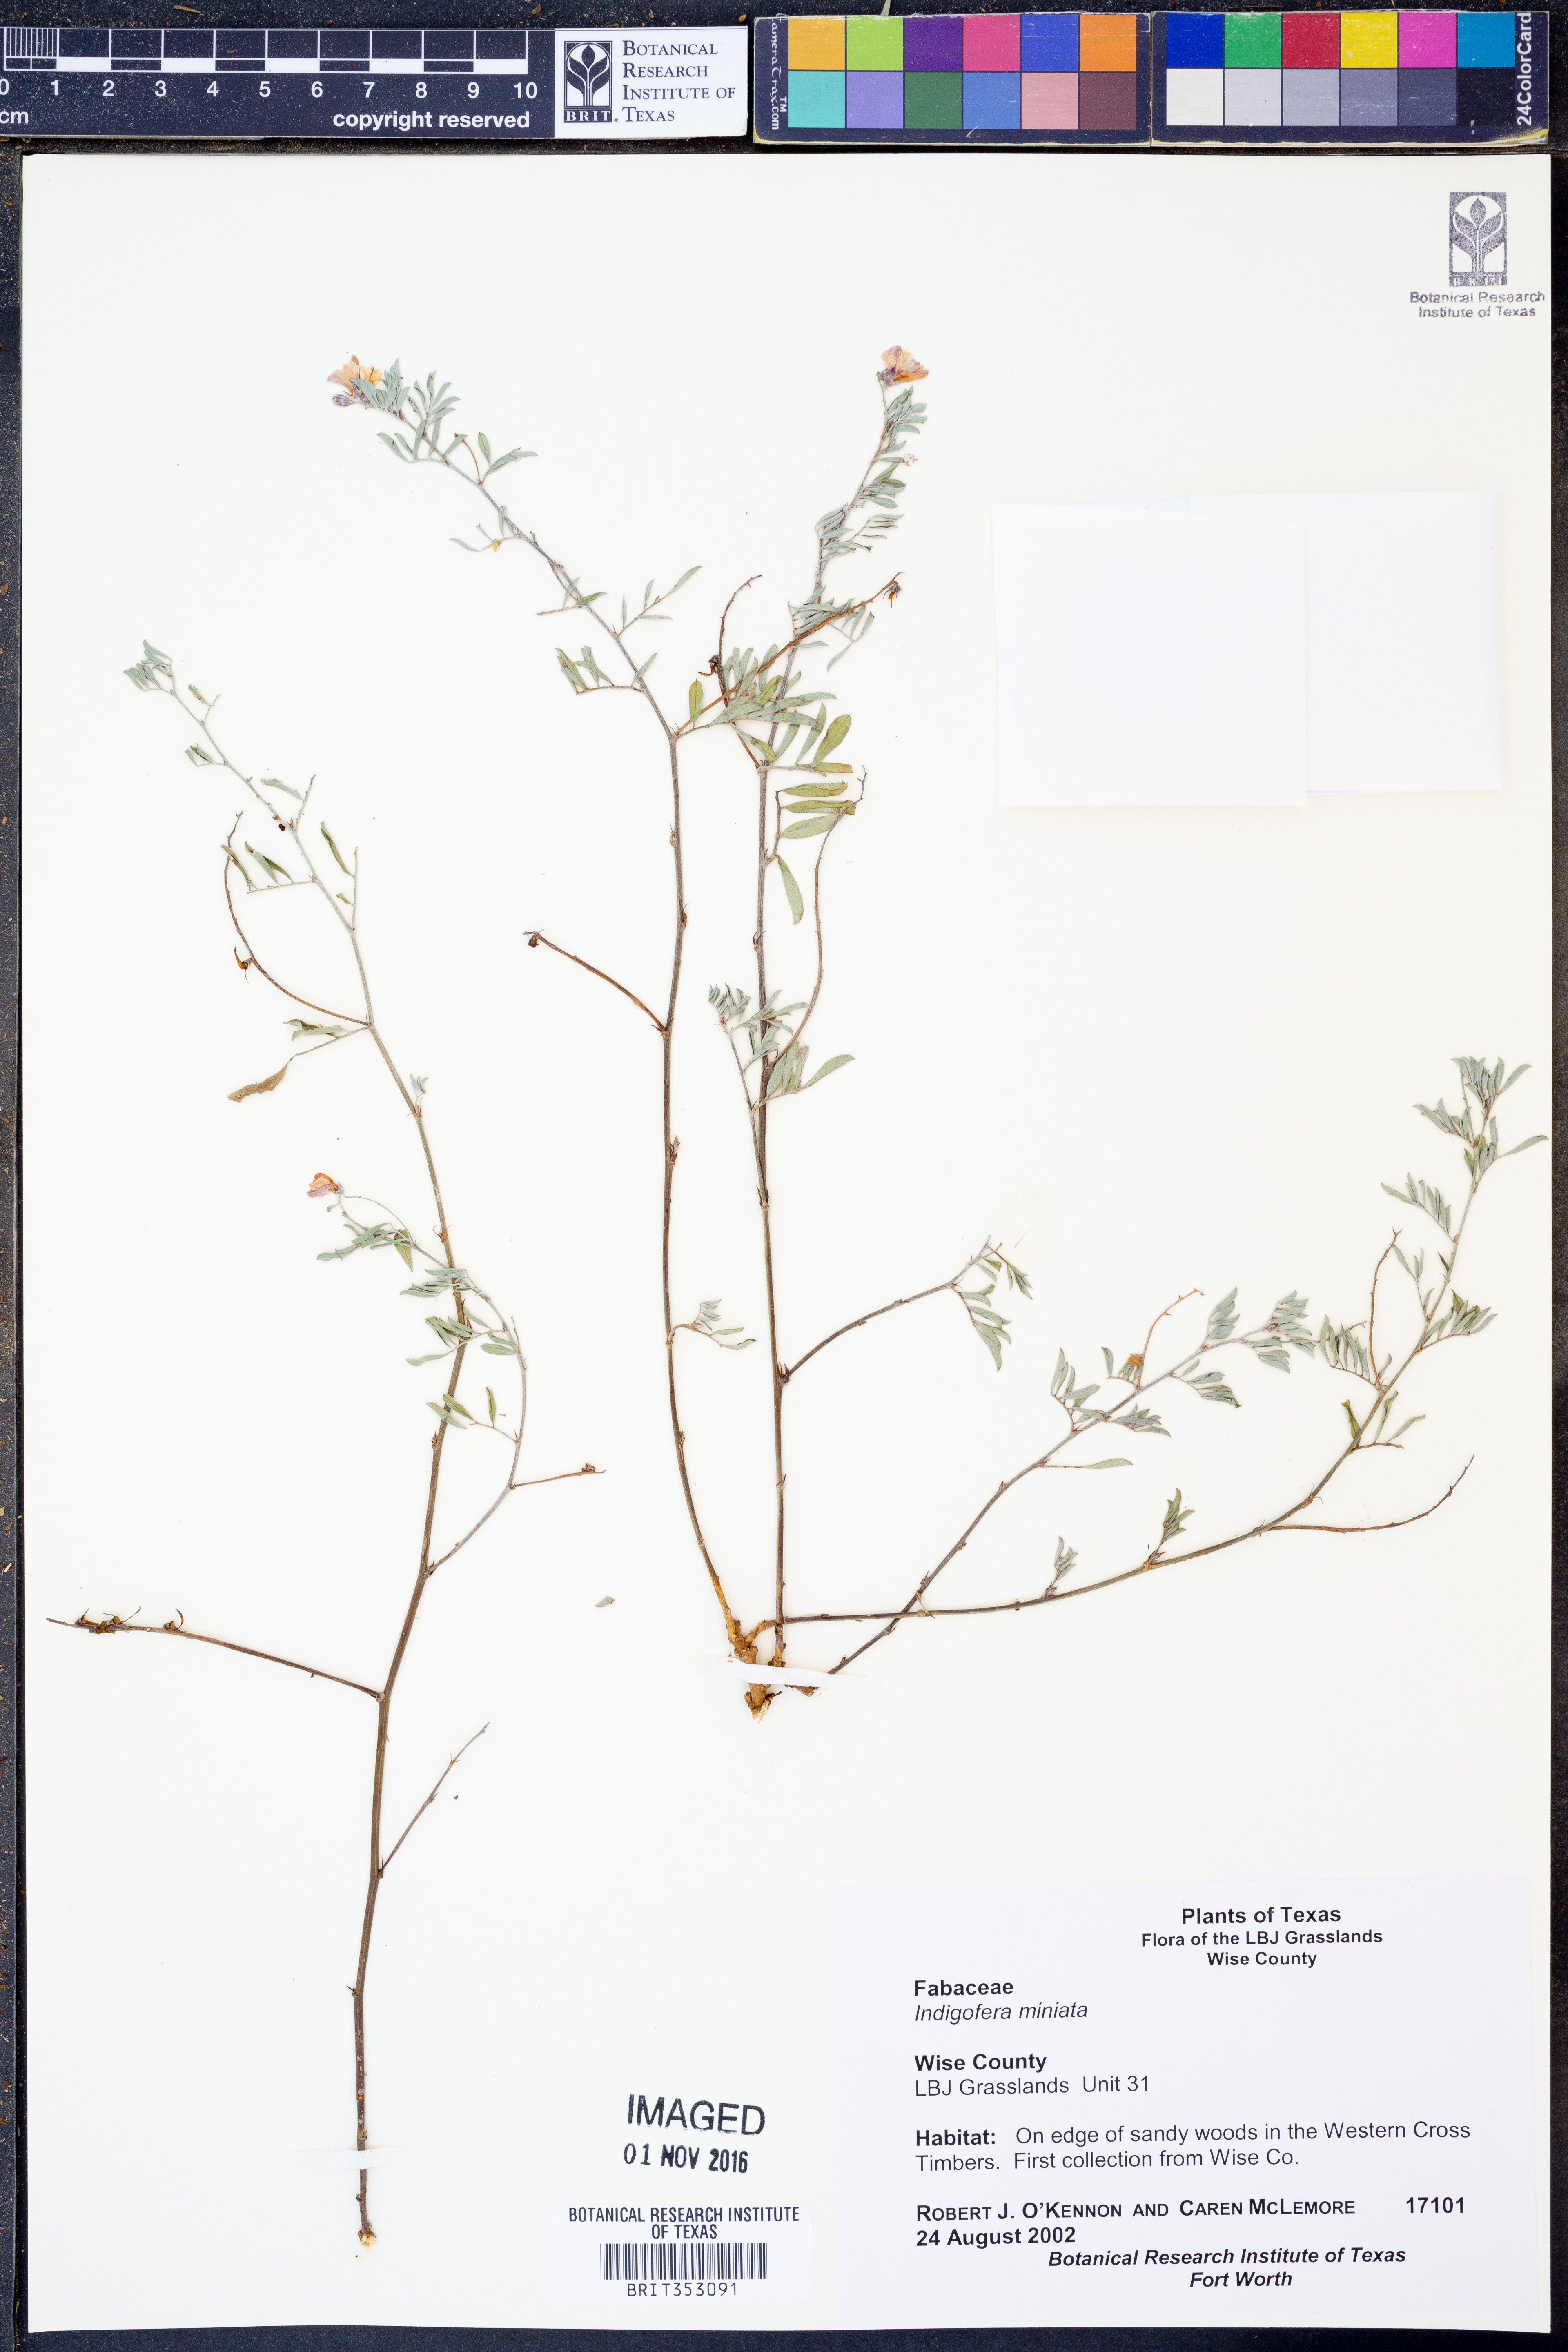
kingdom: Plantae
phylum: Tracheophyta
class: Magnoliopsida
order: Fabales
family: Fabaceae
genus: Indigofera
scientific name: Indigofera miniata
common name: Coast indigo
